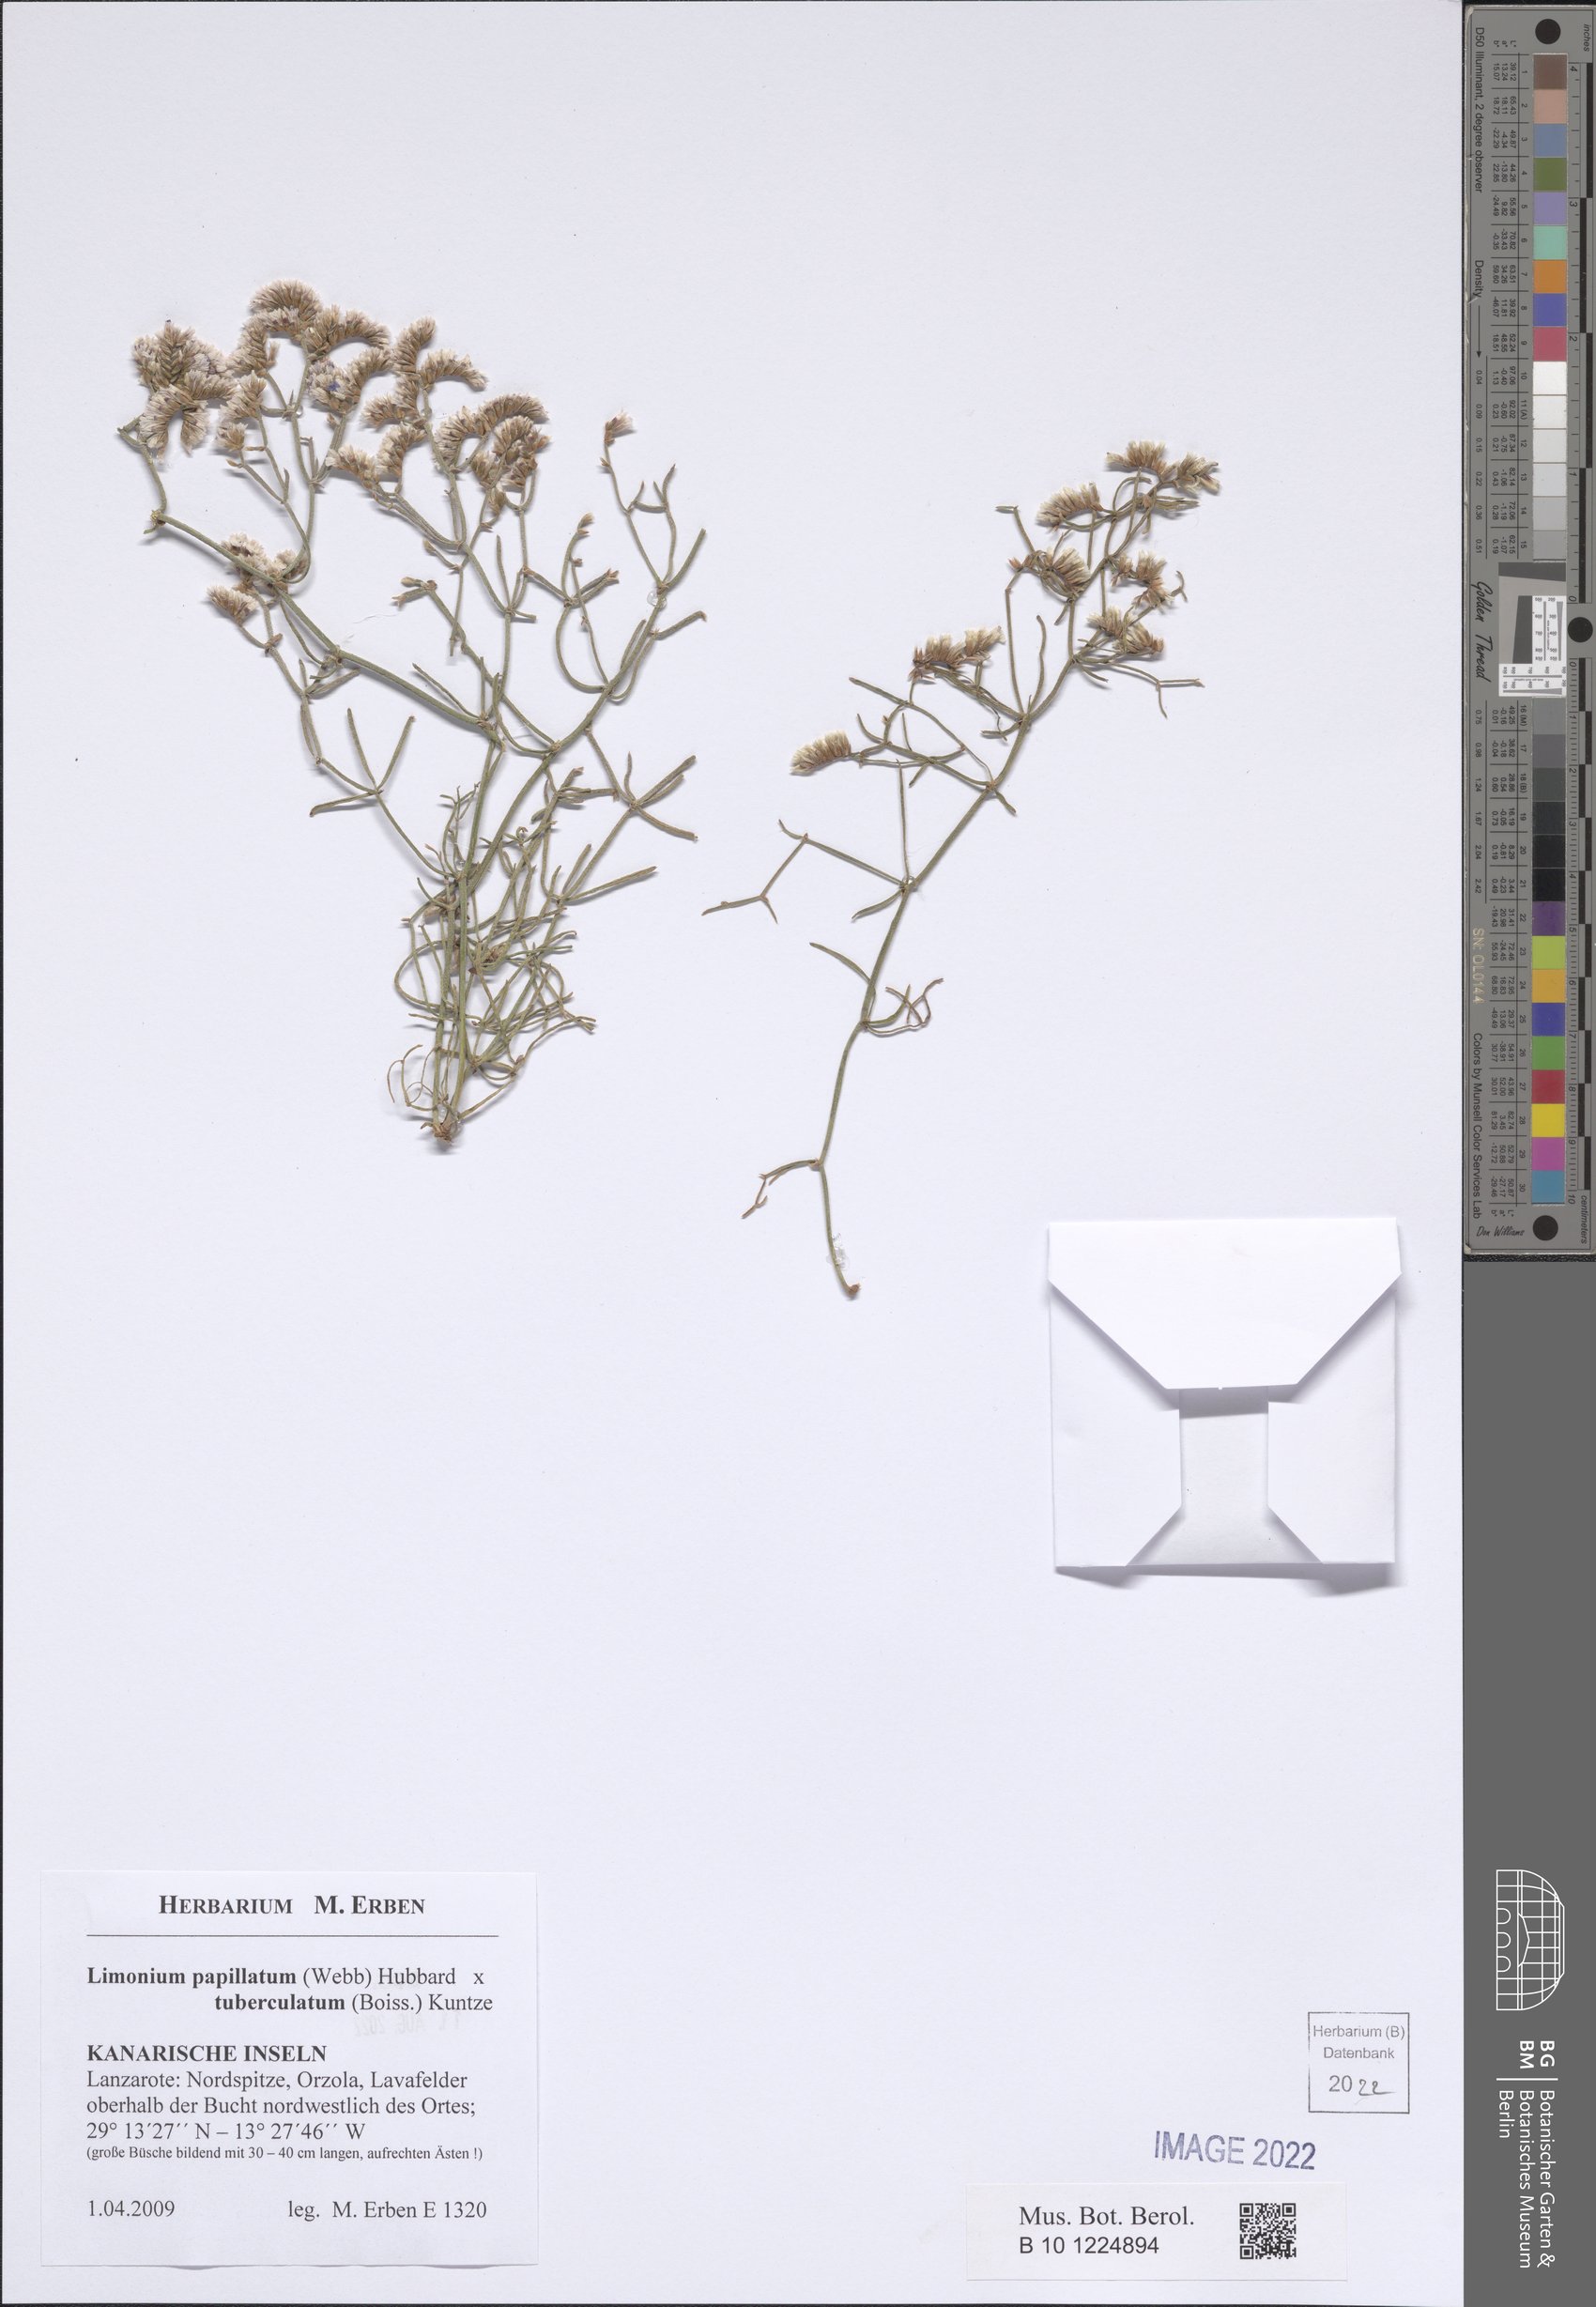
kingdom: Plantae
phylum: Tracheophyta
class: Magnoliopsida
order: Caryophyllales
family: Plumbaginaceae
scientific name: Plumbaginaceae
